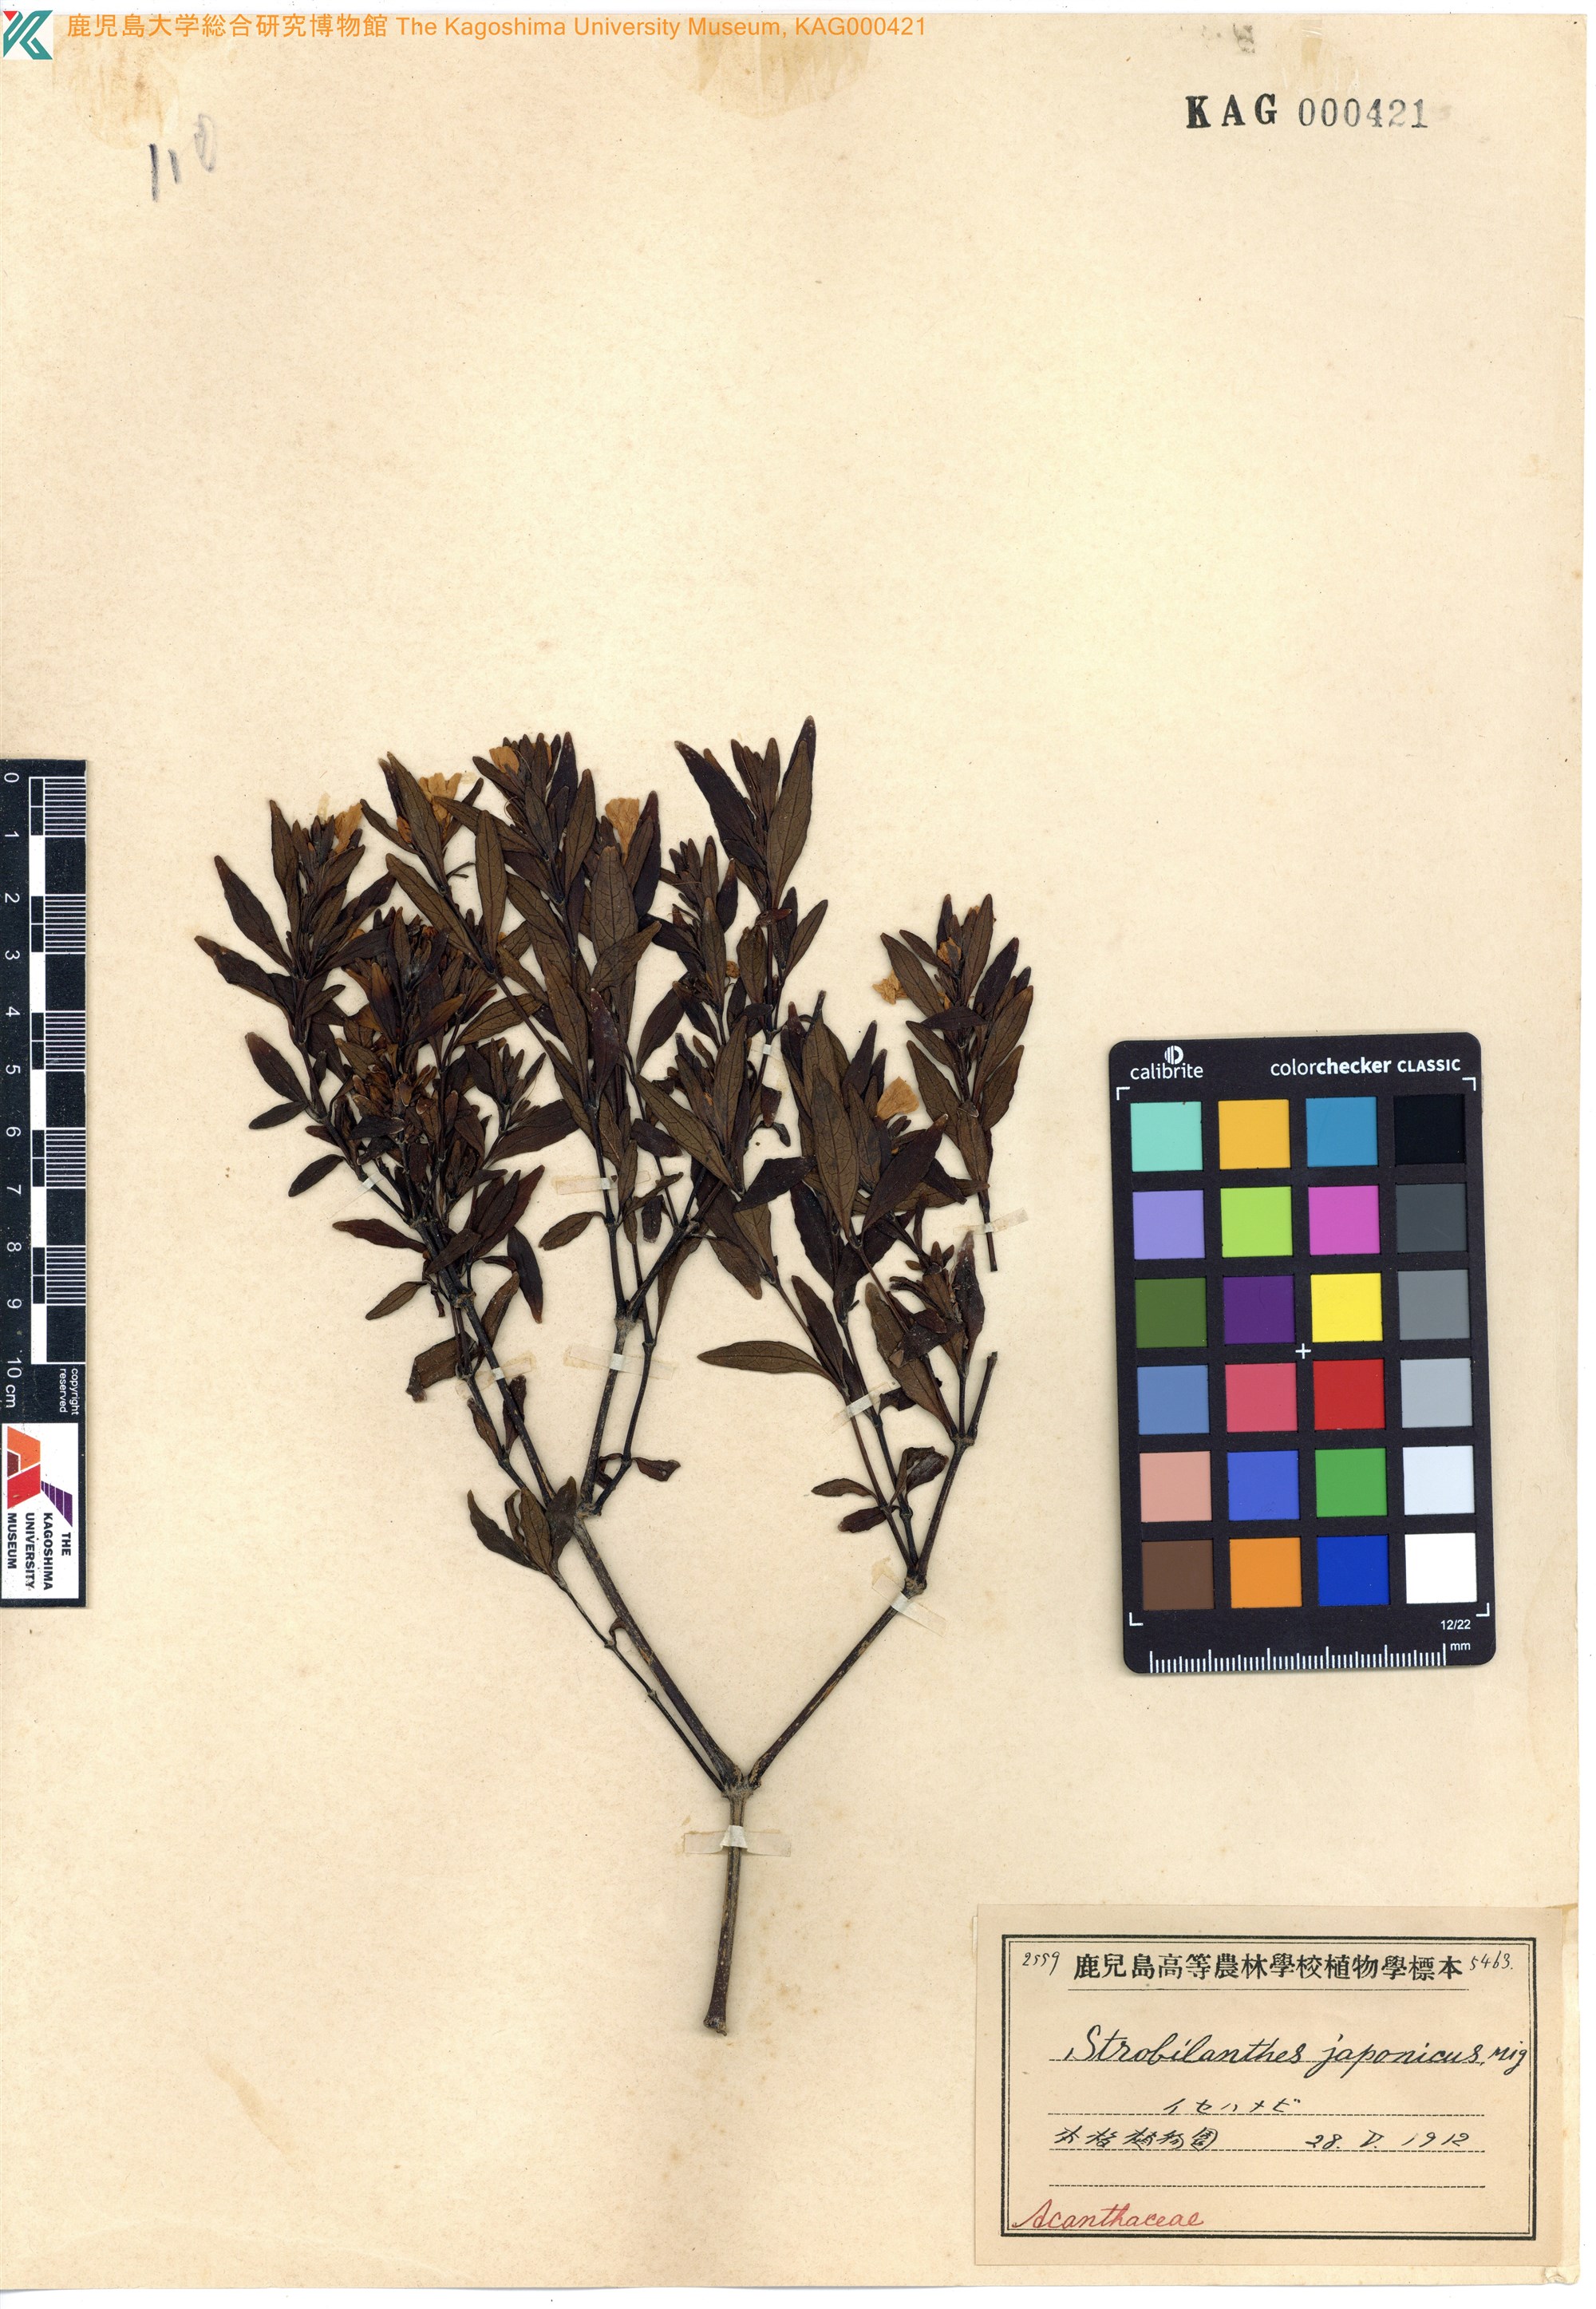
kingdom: Plantae
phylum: Tracheophyta
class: Magnoliopsida
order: Lamiales
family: Acanthaceae
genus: Strobilanthes
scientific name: Strobilanthes japonica
